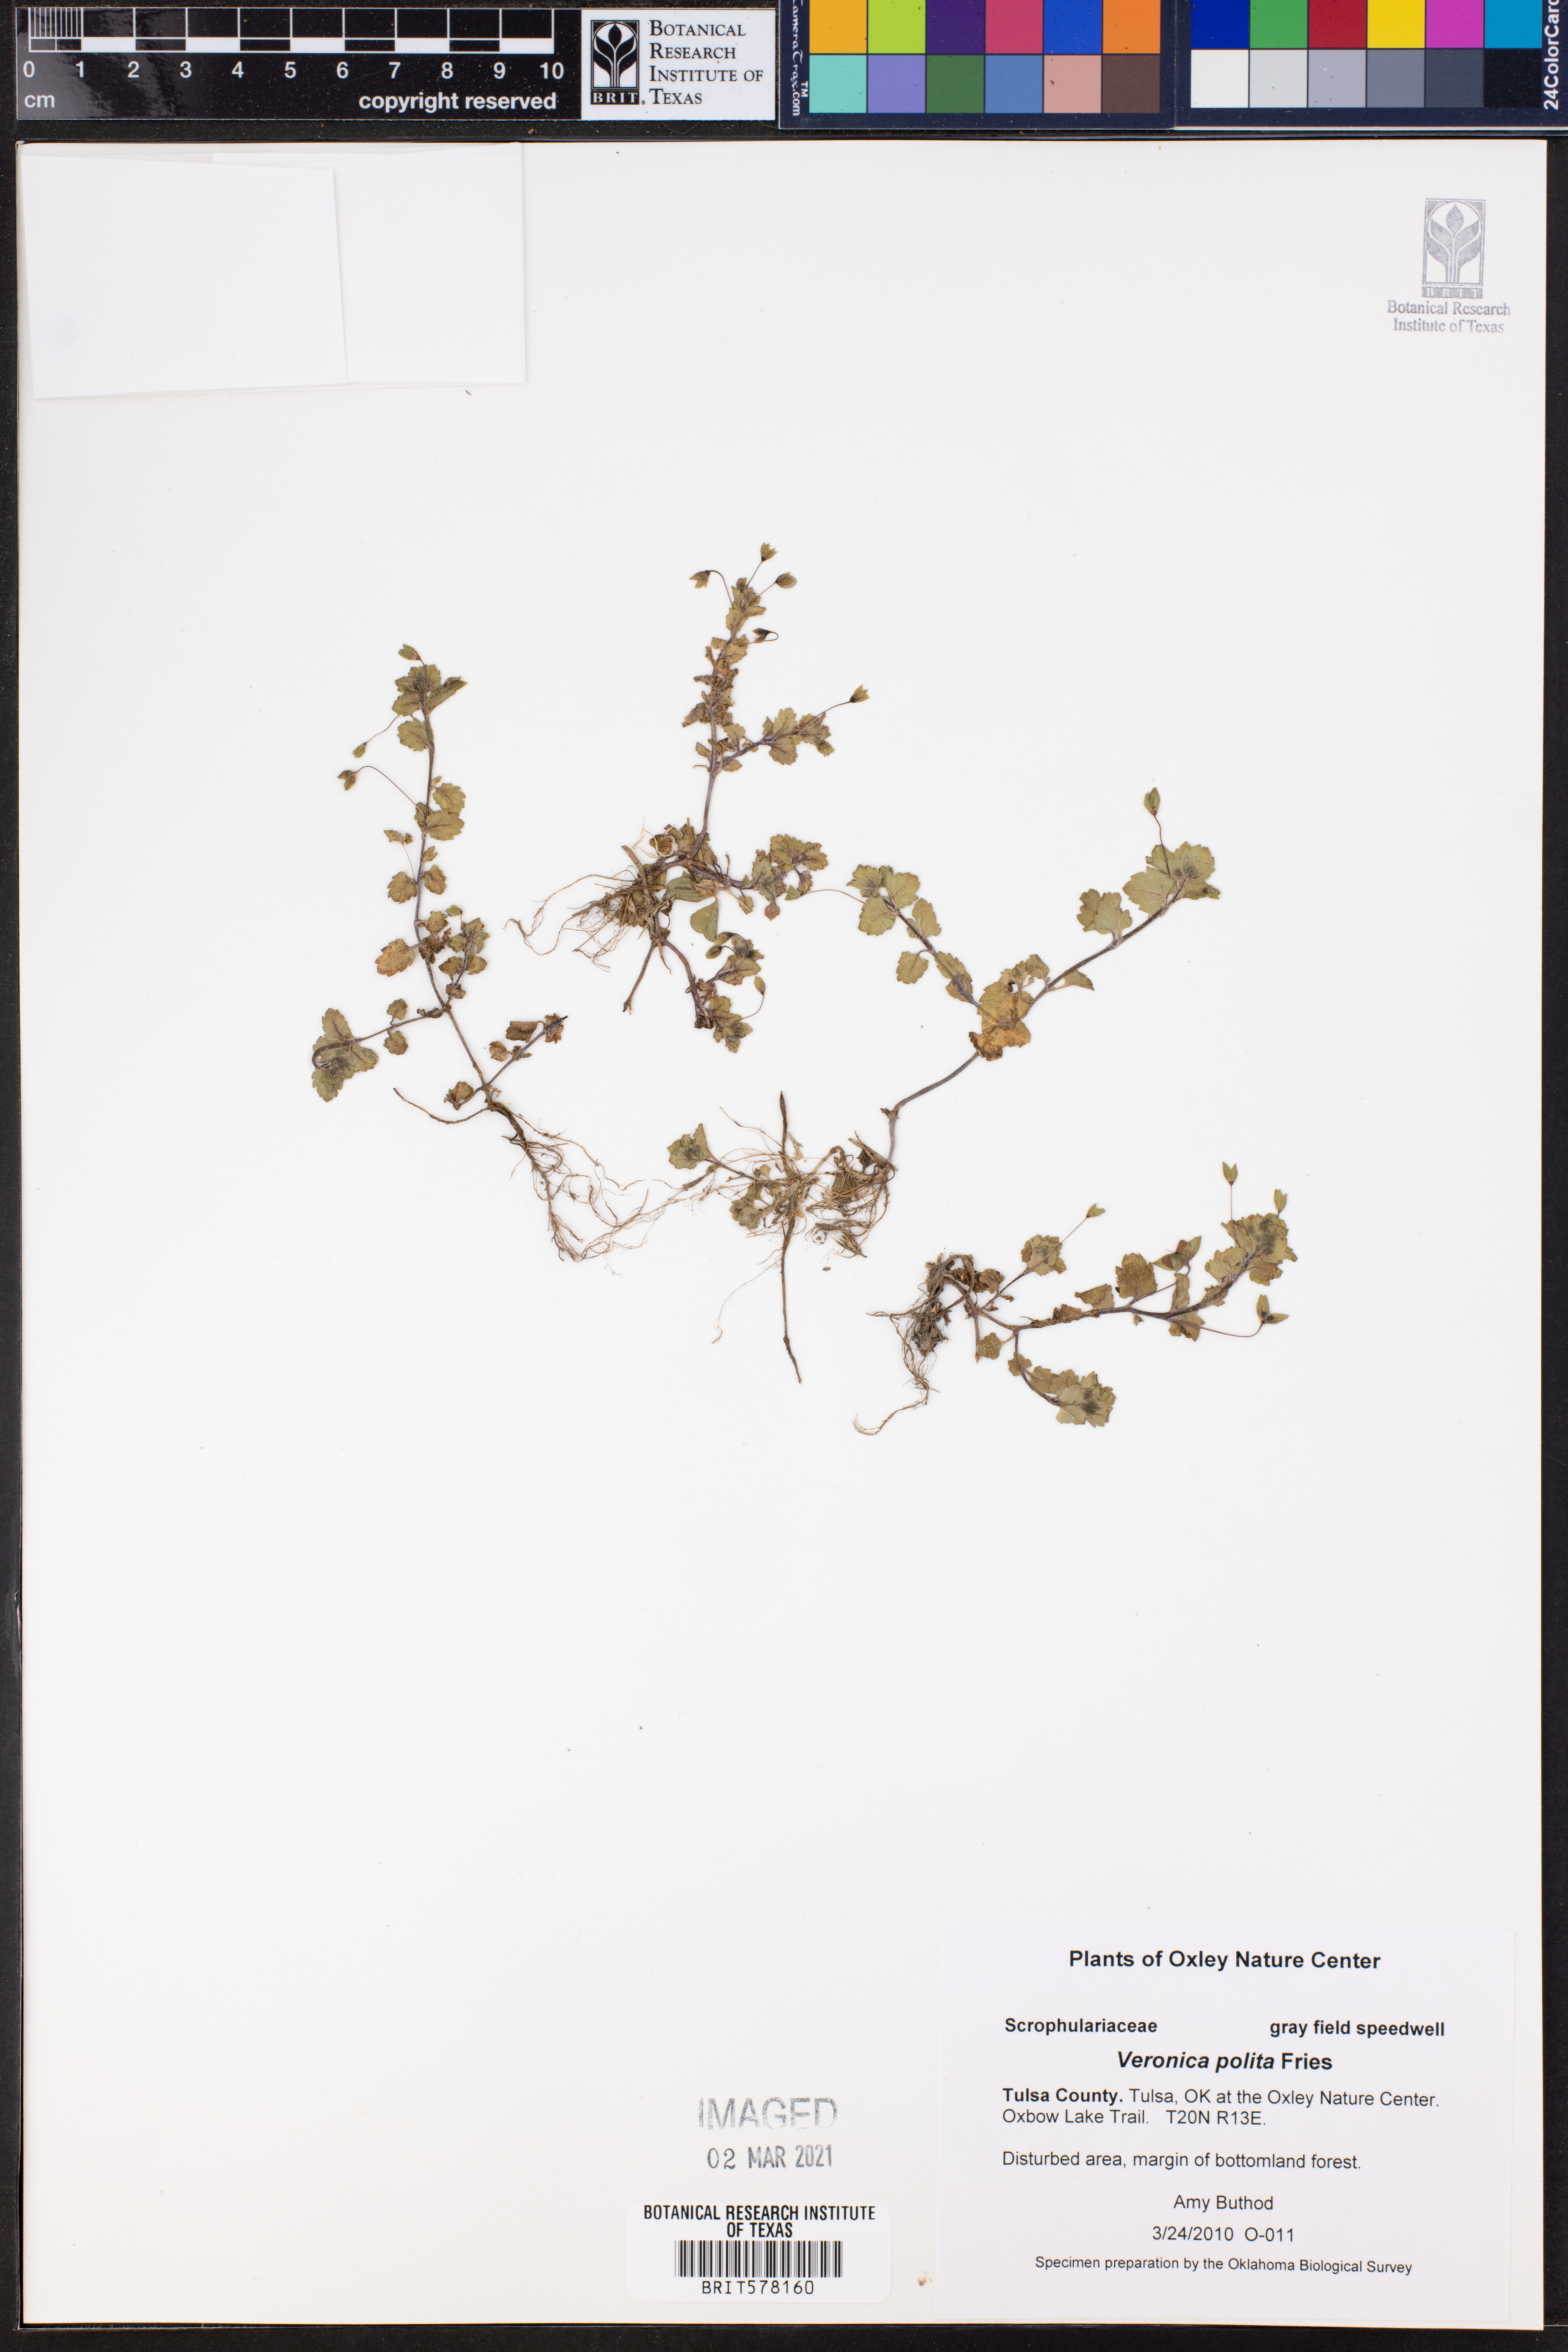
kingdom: Plantae
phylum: Tracheophyta
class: Magnoliopsida
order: Lamiales
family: Plantaginaceae
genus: Veronica
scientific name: Veronica polita
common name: Grey field-speedwell
